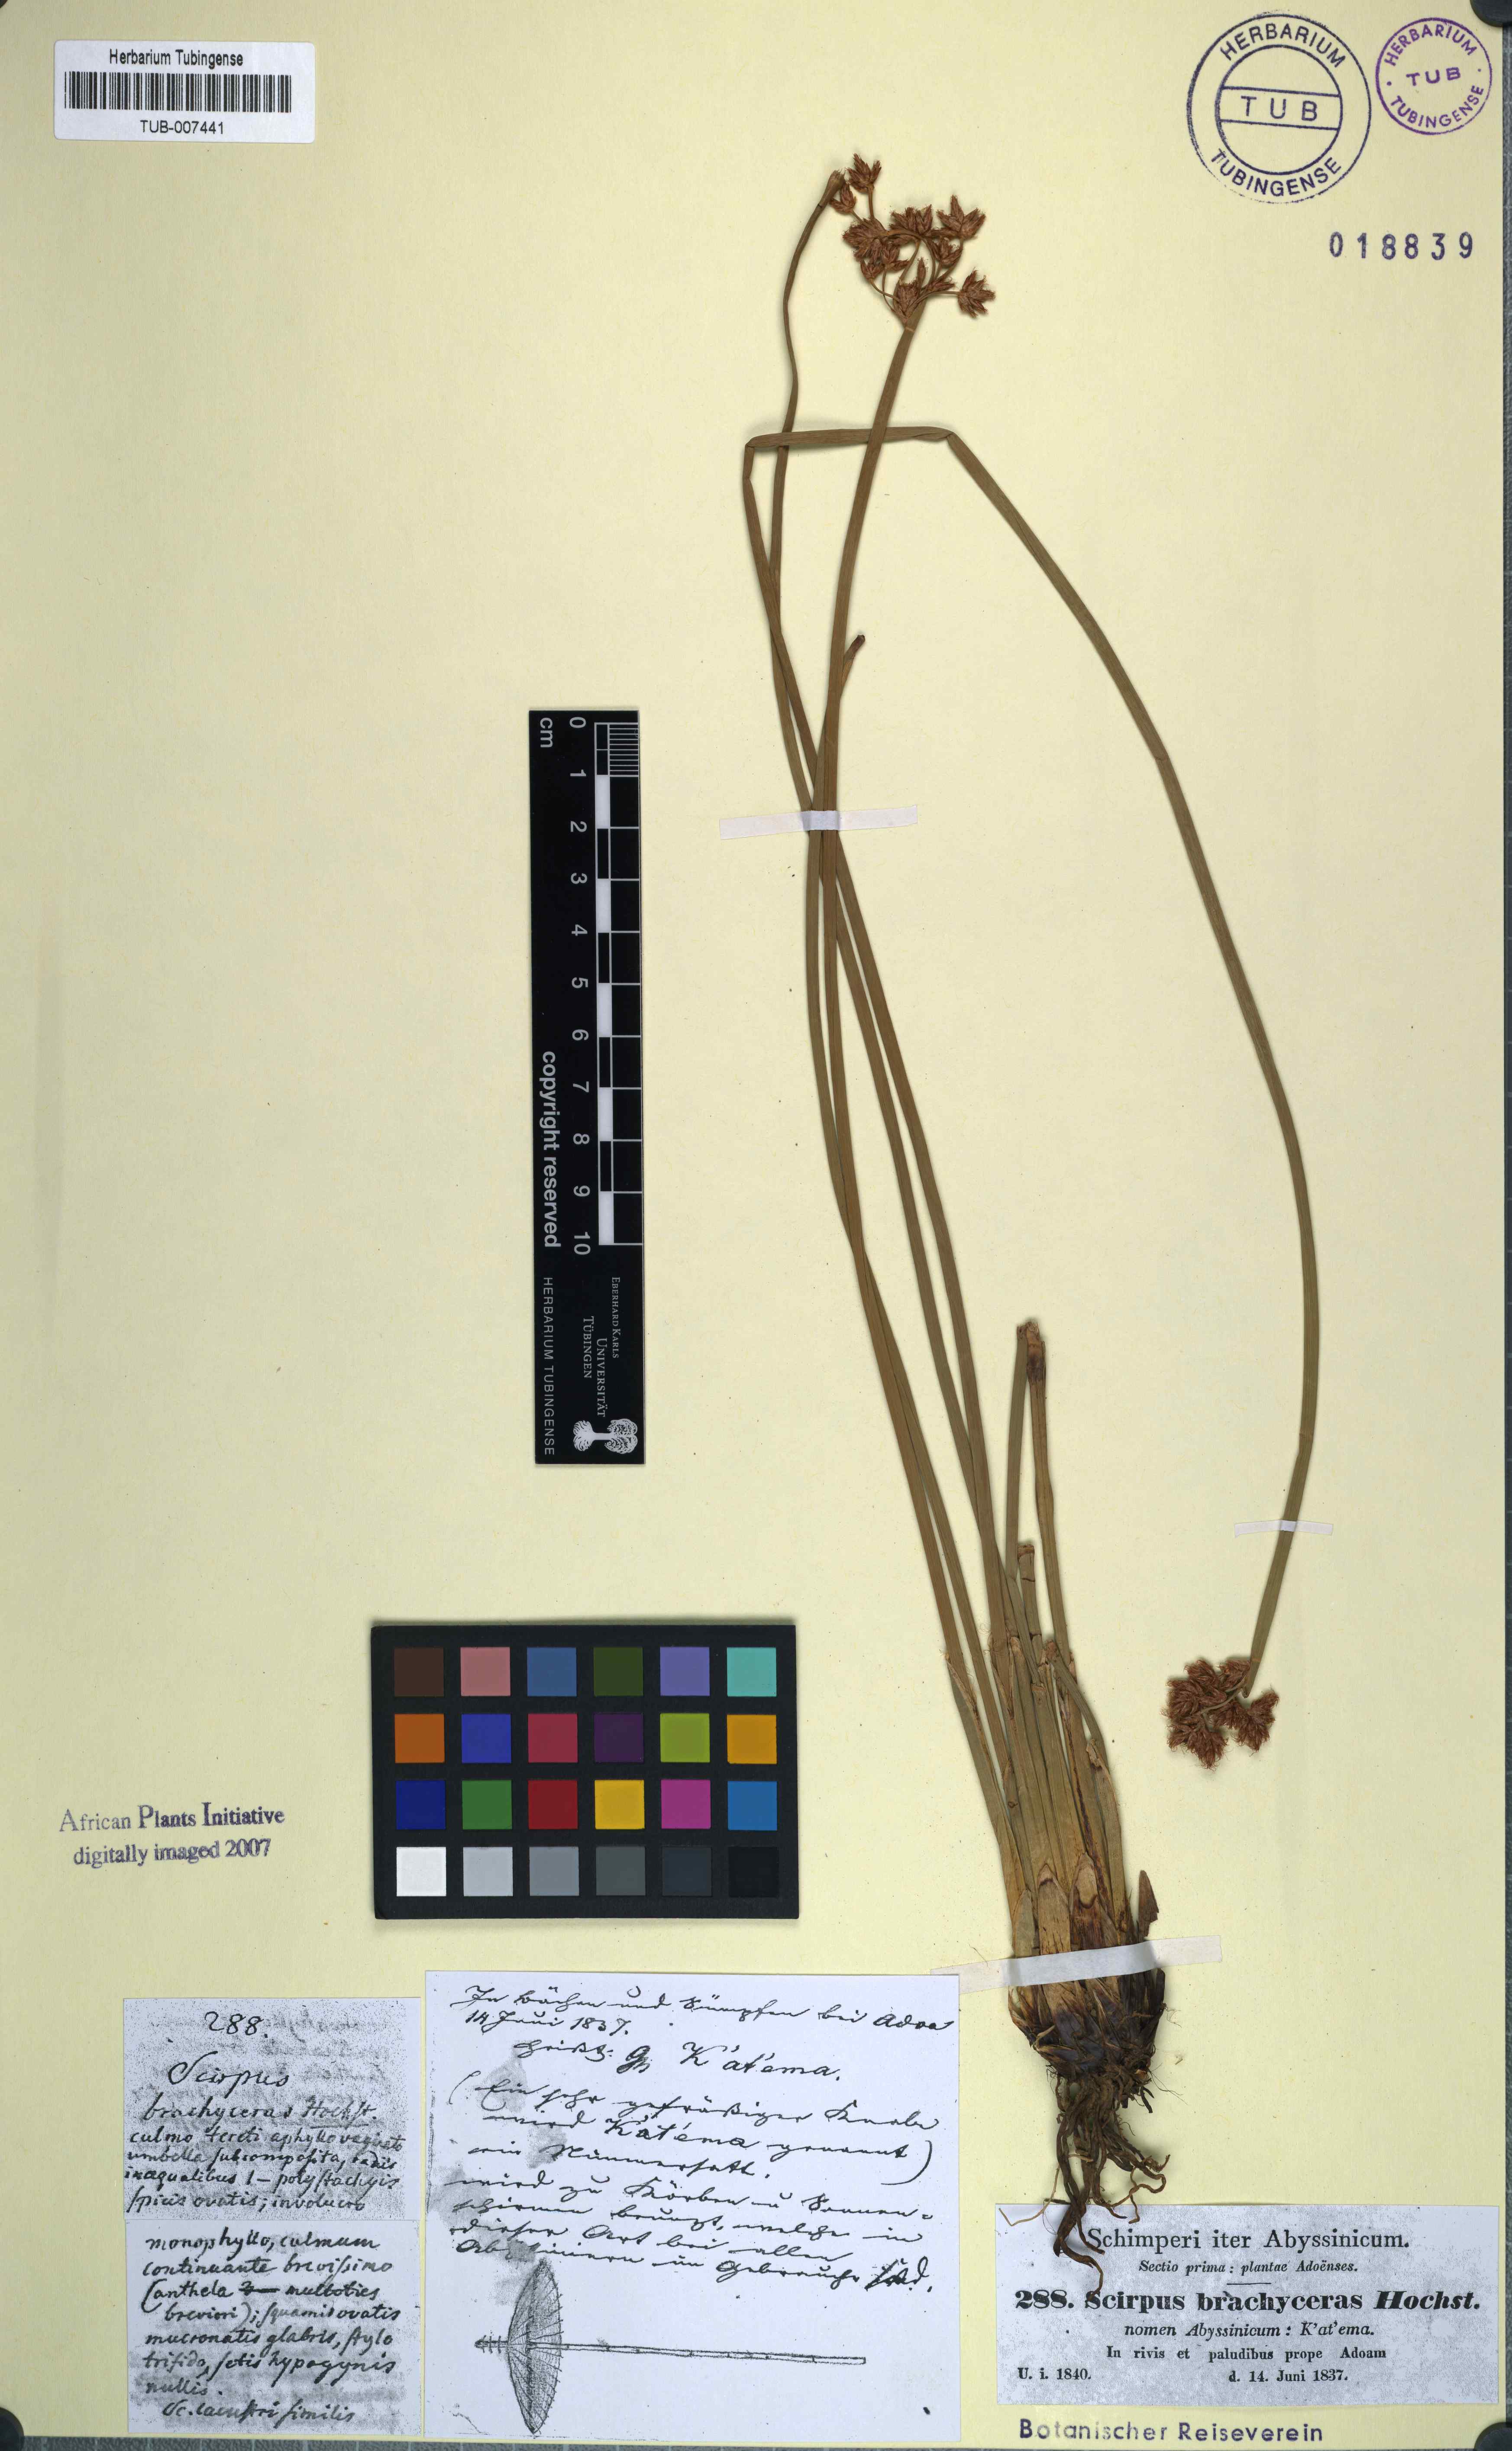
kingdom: Plantae
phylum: Tracheophyta
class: Liliopsida
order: Poales
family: Cyperaceae
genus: Schoenoplectiella
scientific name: Schoenoplectiella corymbosa
